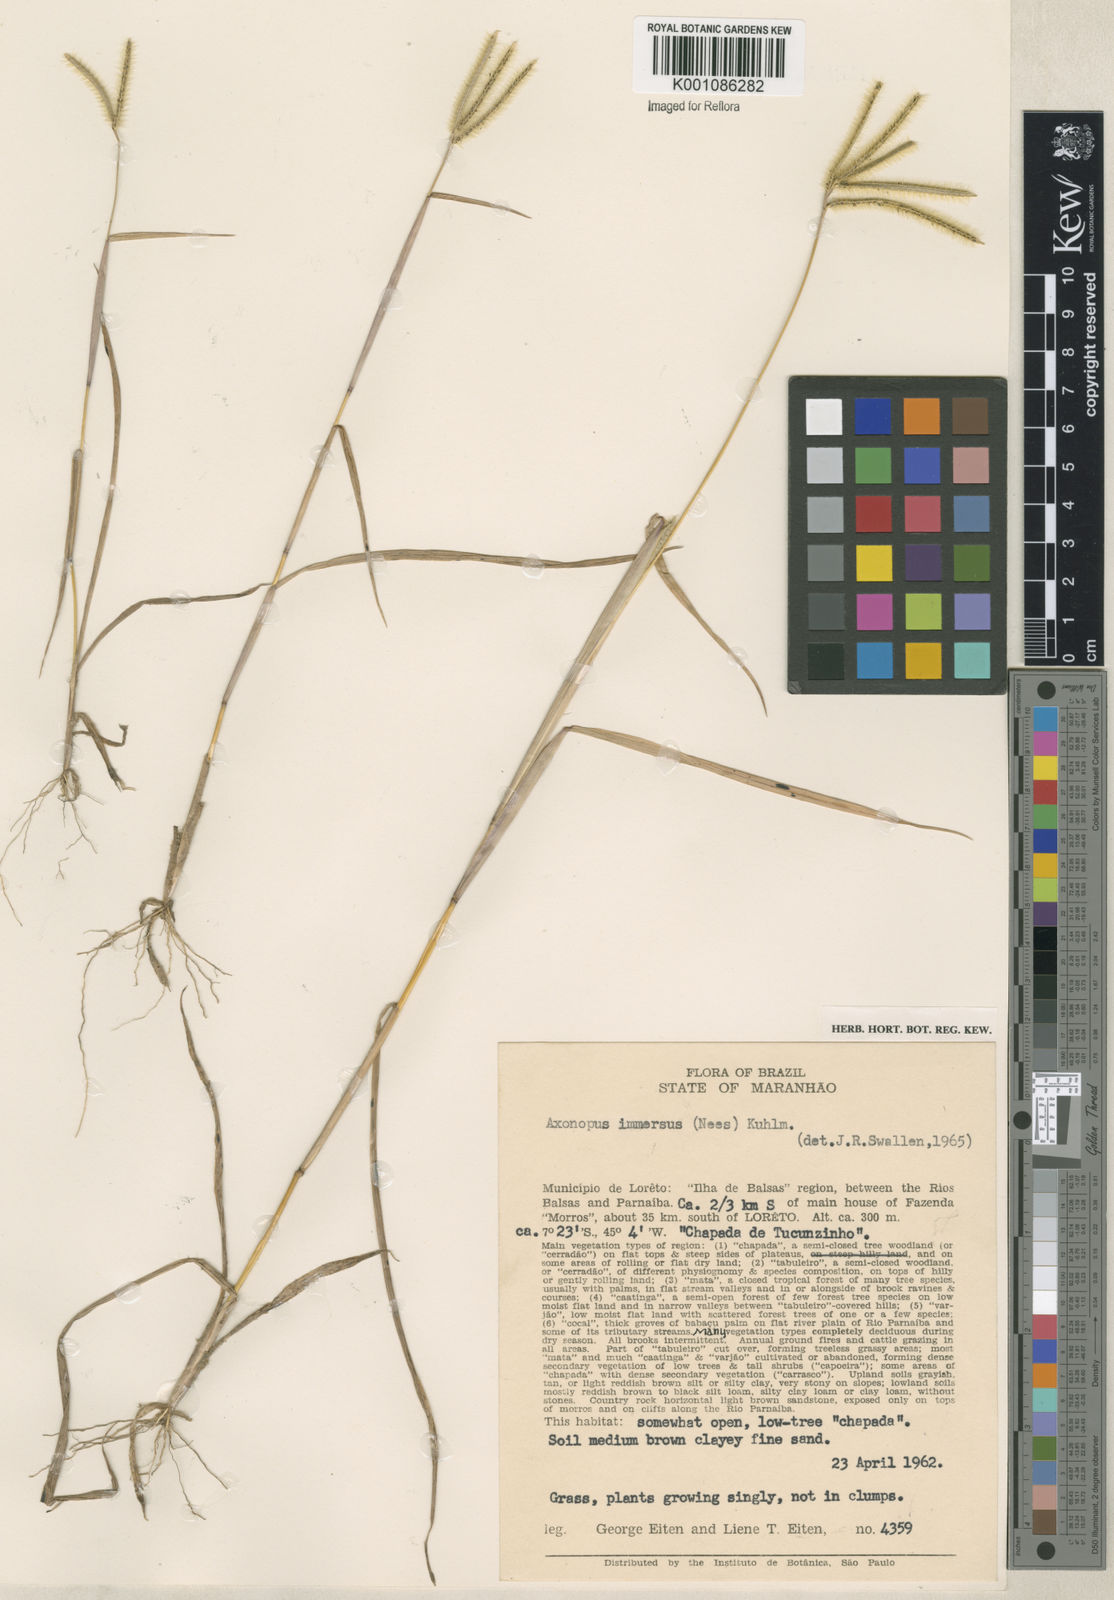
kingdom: Plantae
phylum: Tracheophyta
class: Liliopsida
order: Poales
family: Poaceae
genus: Axonopus
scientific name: Axonopus chrysoblepharis
